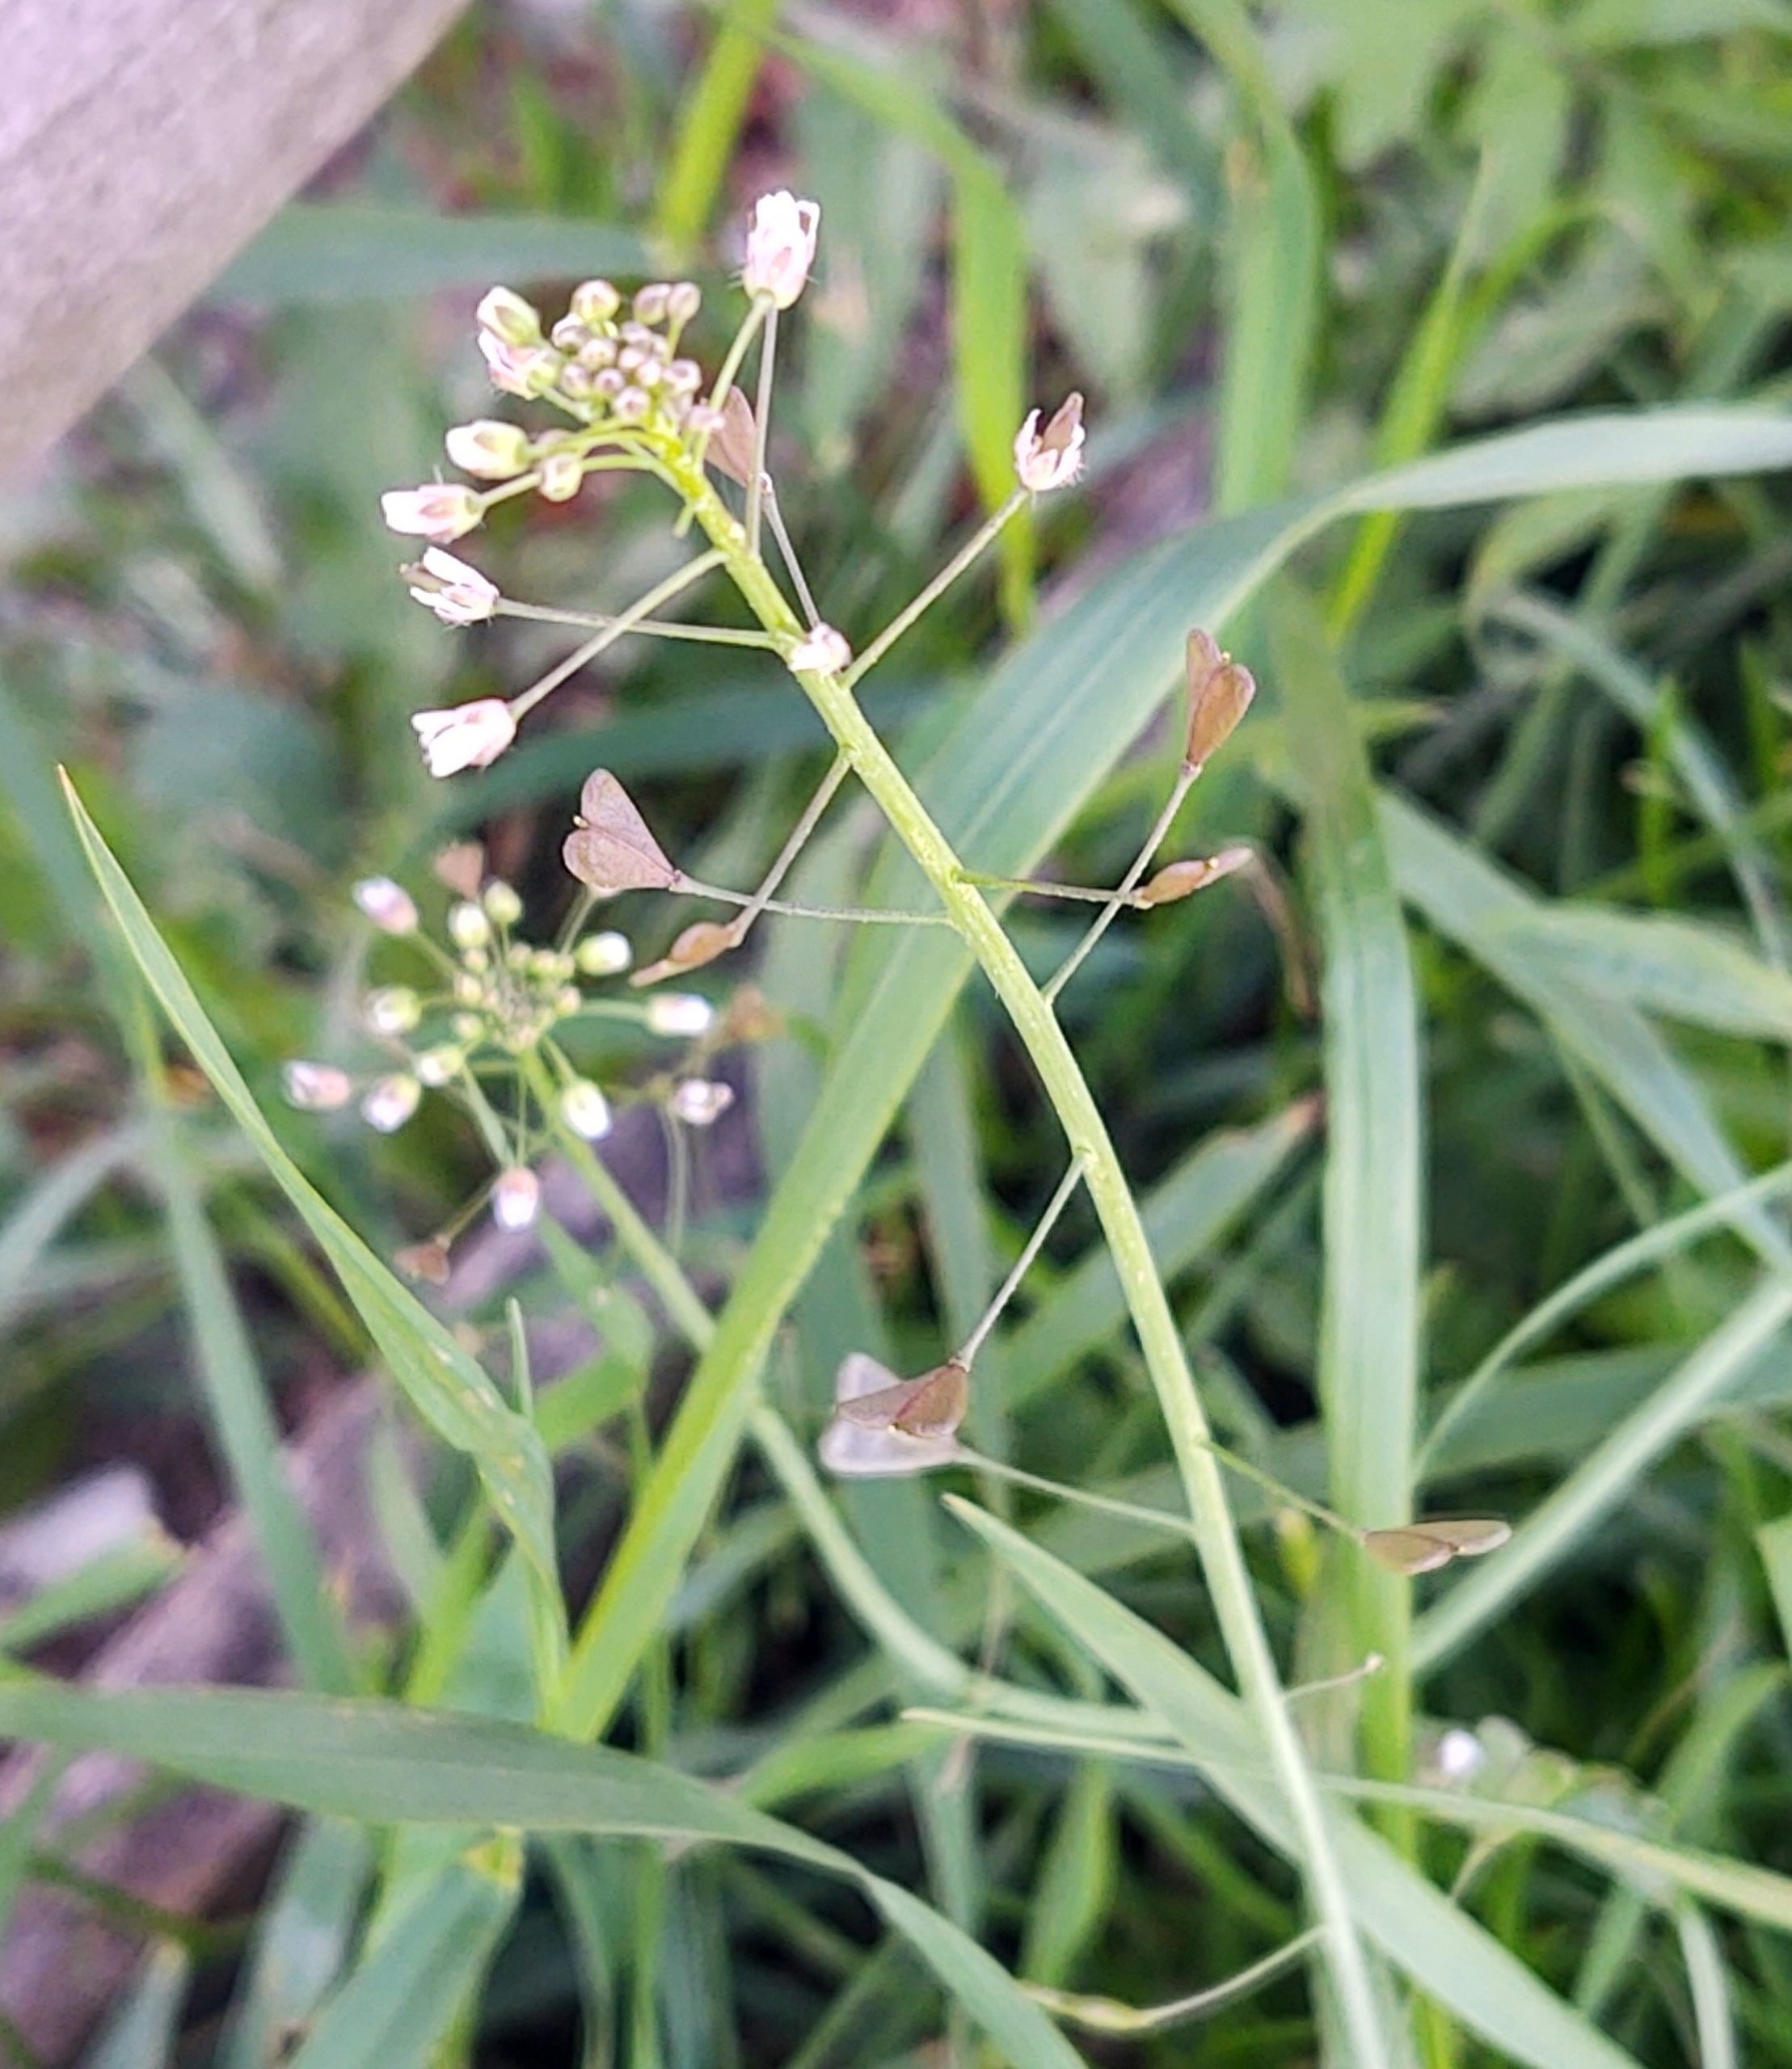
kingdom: Plantae
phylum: Tracheophyta
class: Magnoliopsida
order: Brassicales
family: Brassicaceae
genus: Capsella
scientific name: Capsella bursa-pastoris
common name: Hyrdetaske
